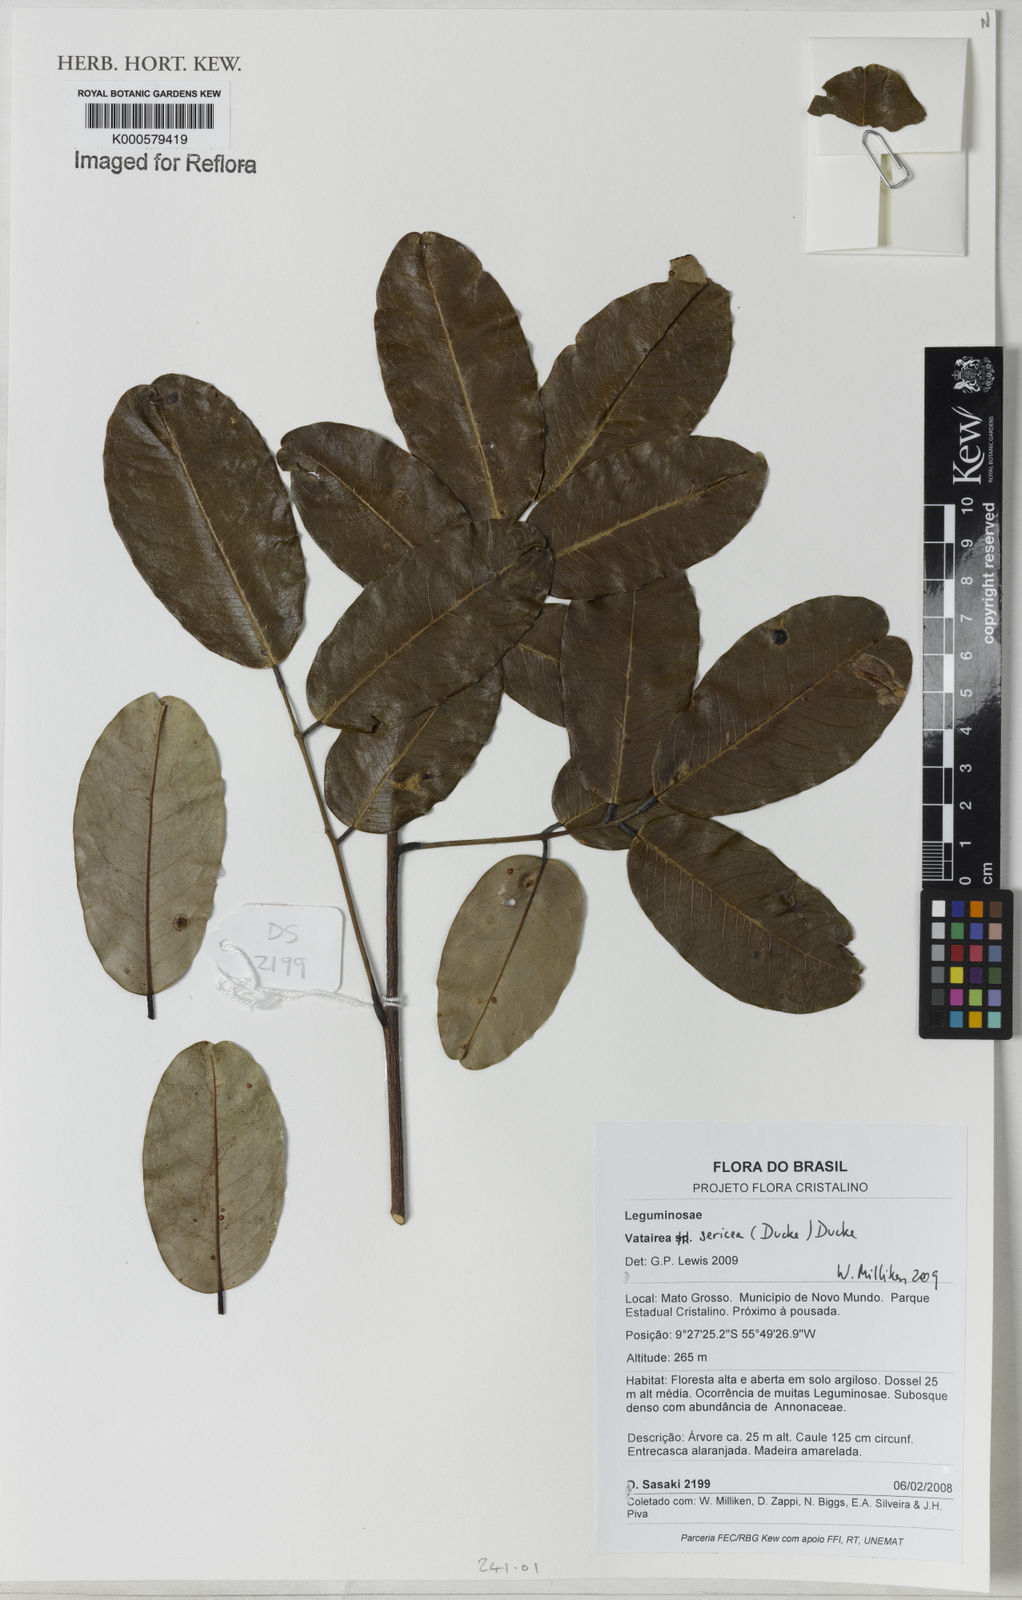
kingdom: Plantae
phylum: Tracheophyta
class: Magnoliopsida
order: Fabales
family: Fabaceae
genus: Vatairea
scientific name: Vatairea sericea
